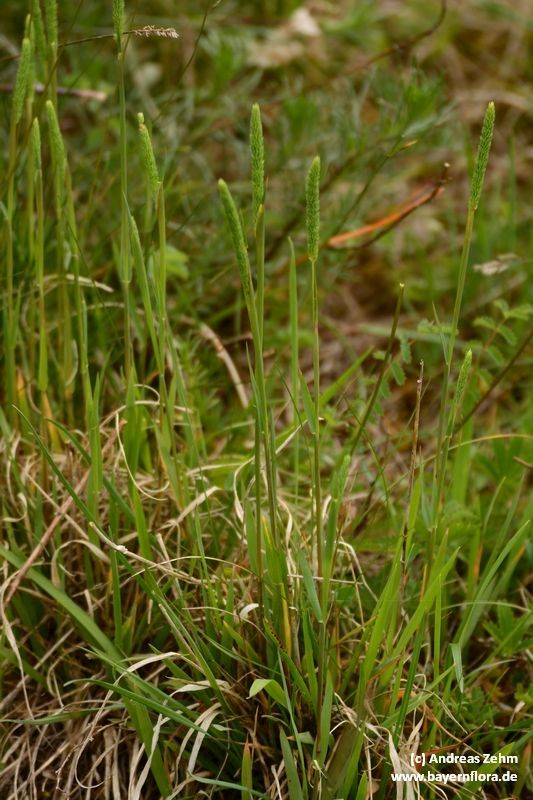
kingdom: Plantae
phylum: Tracheophyta
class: Liliopsida
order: Poales
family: Poaceae
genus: Phleum
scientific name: Phleum phleoides
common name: Purple-stem cat's-tail
